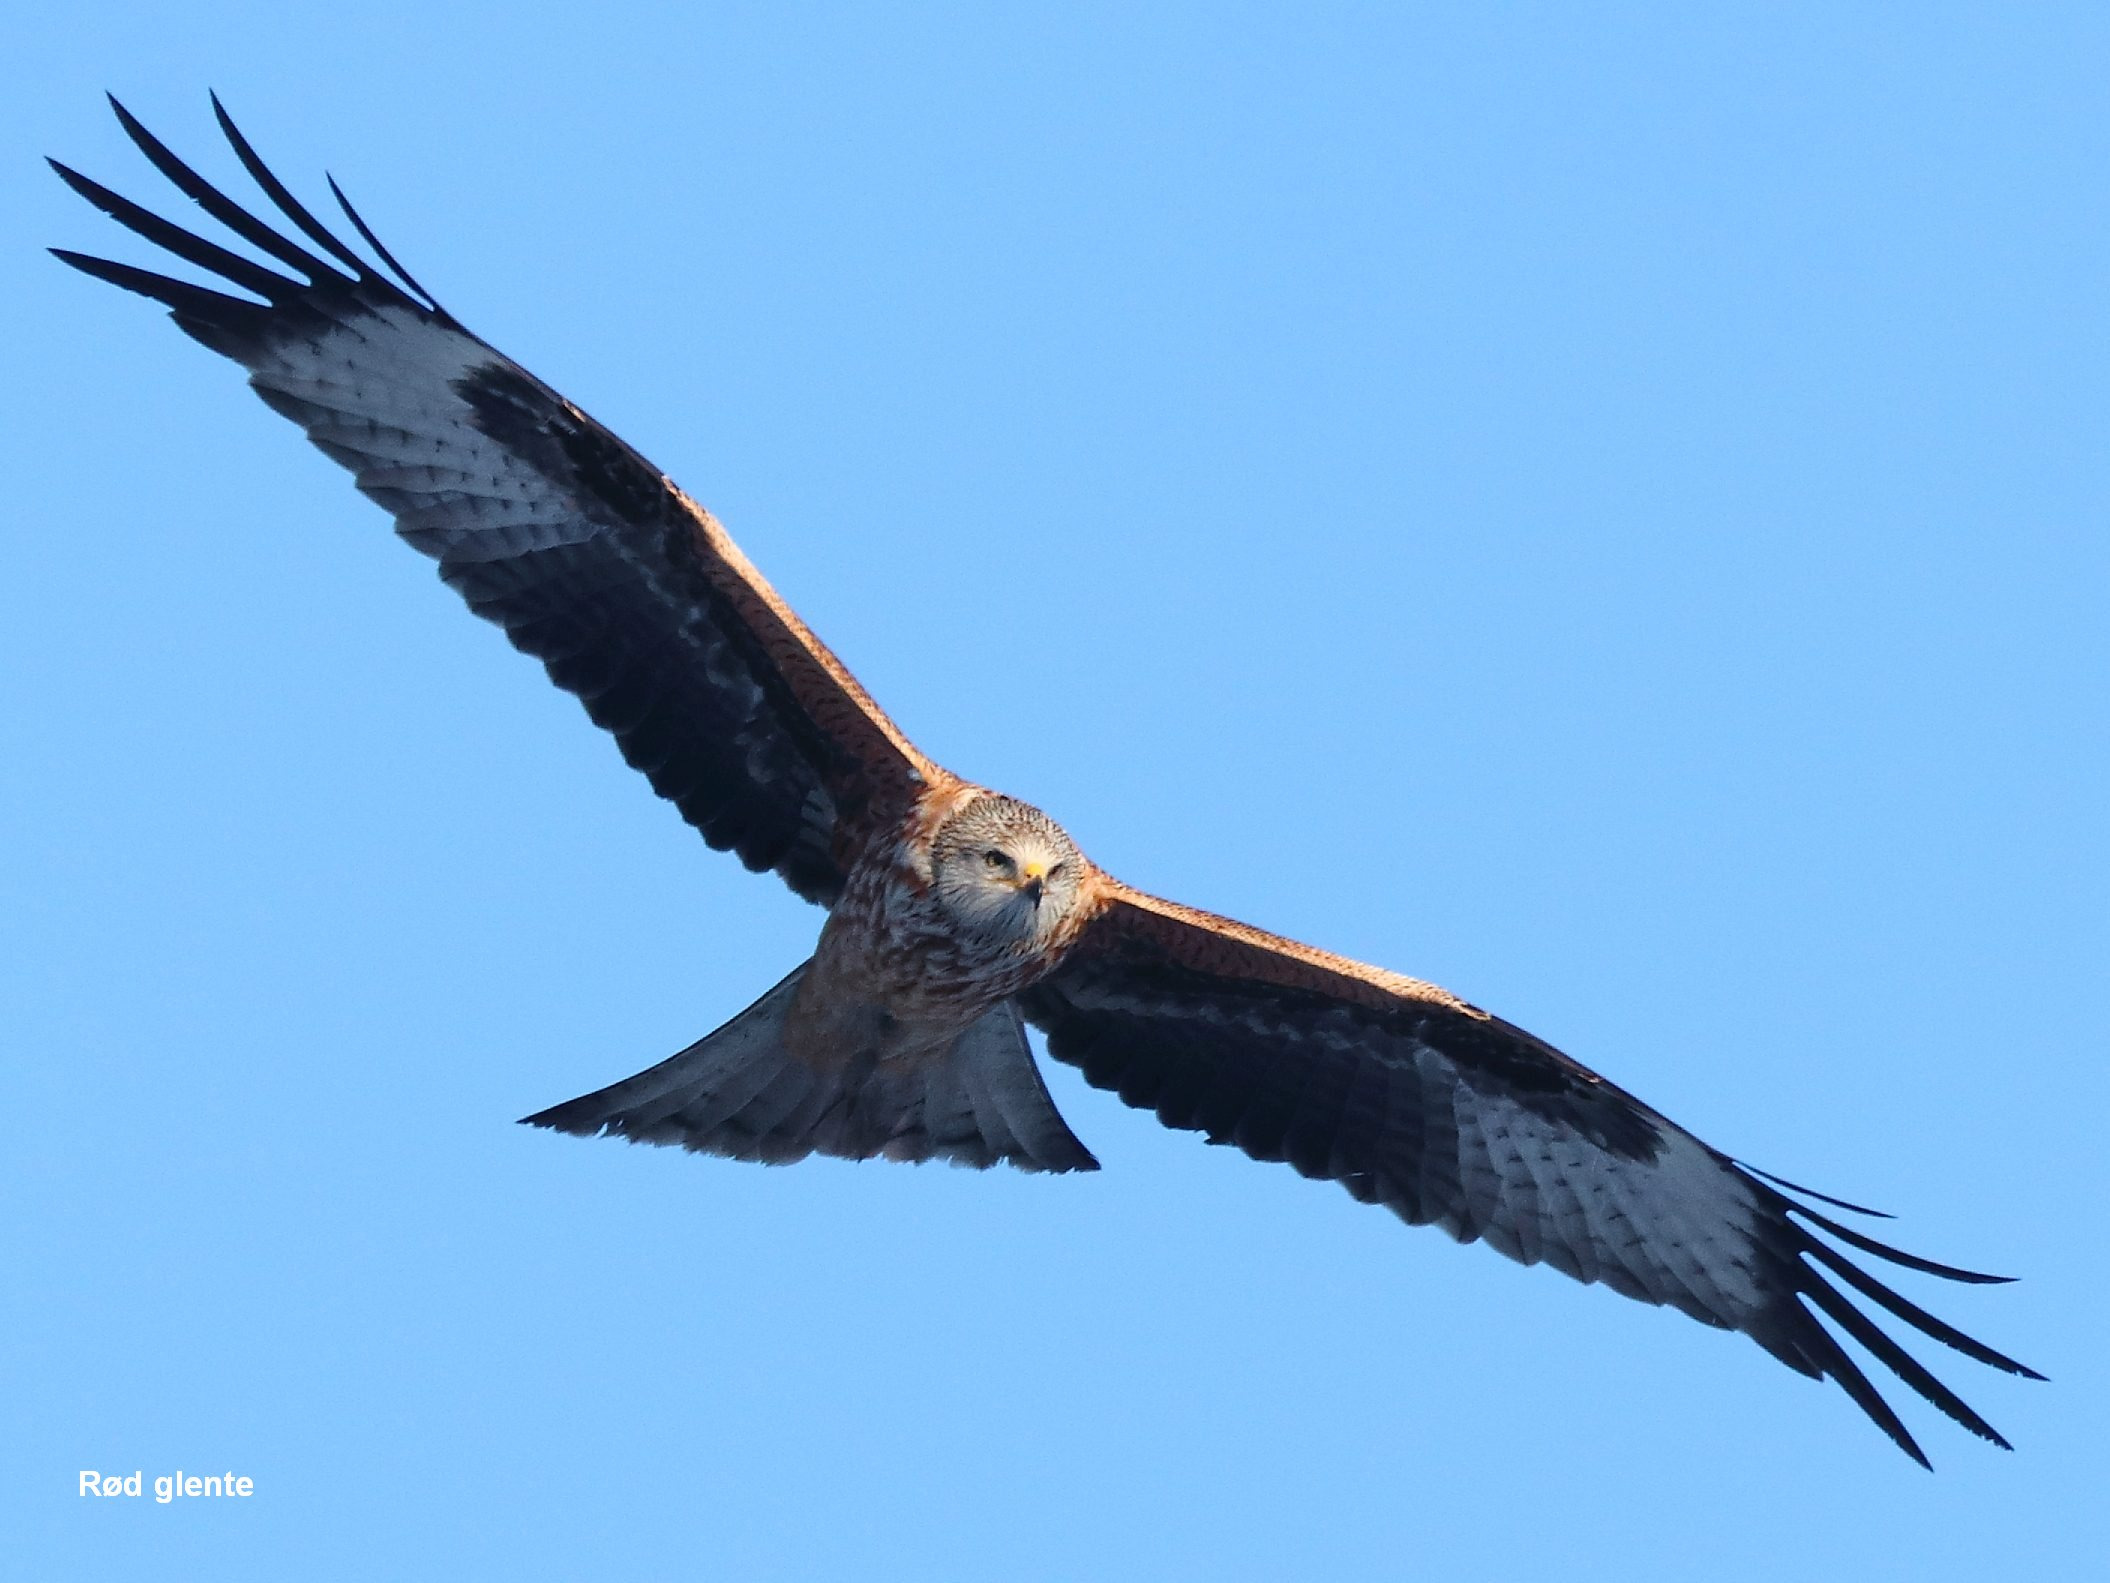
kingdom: Animalia
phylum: Chordata
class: Aves
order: Accipitriformes
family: Accipitridae
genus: Milvus
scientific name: Milvus milvus
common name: Rød glente
